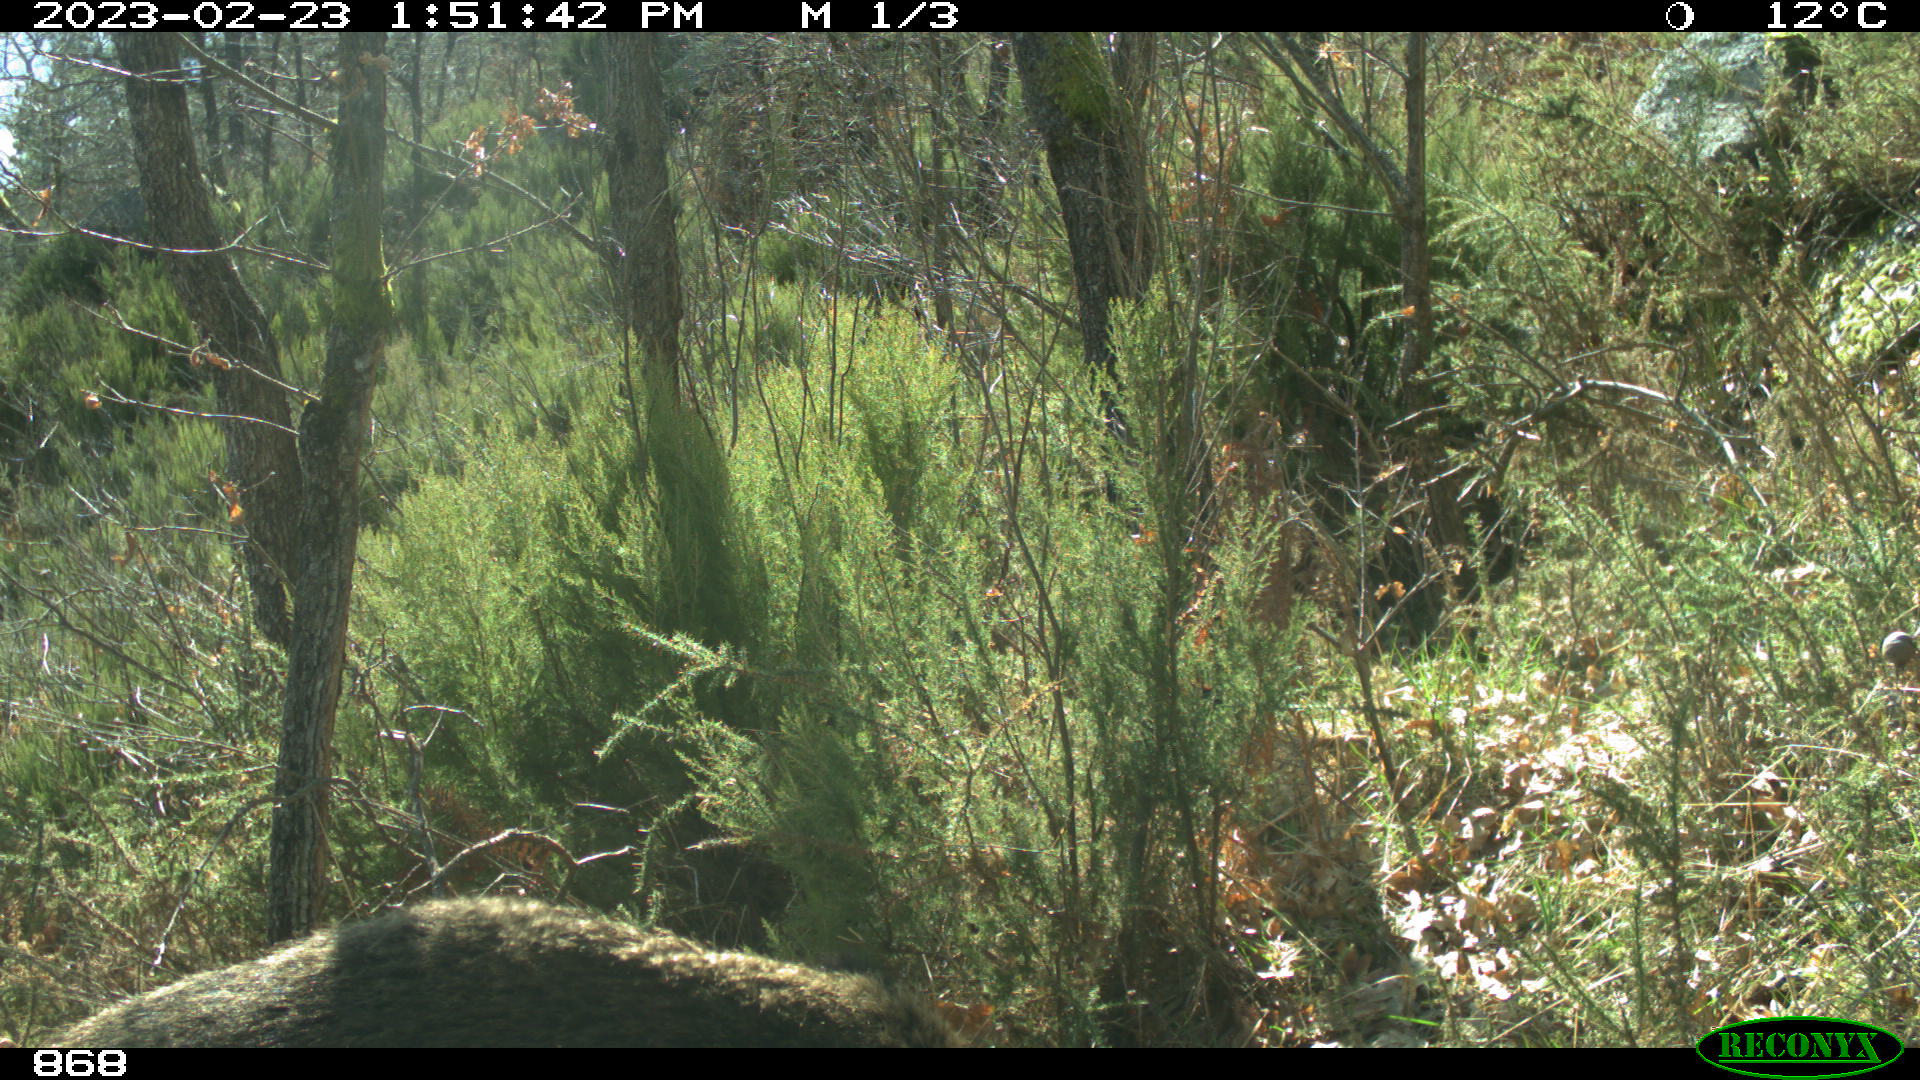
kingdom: Animalia
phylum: Chordata
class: Mammalia
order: Artiodactyla
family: Suidae
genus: Sus
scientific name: Sus scrofa
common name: Wild boar
